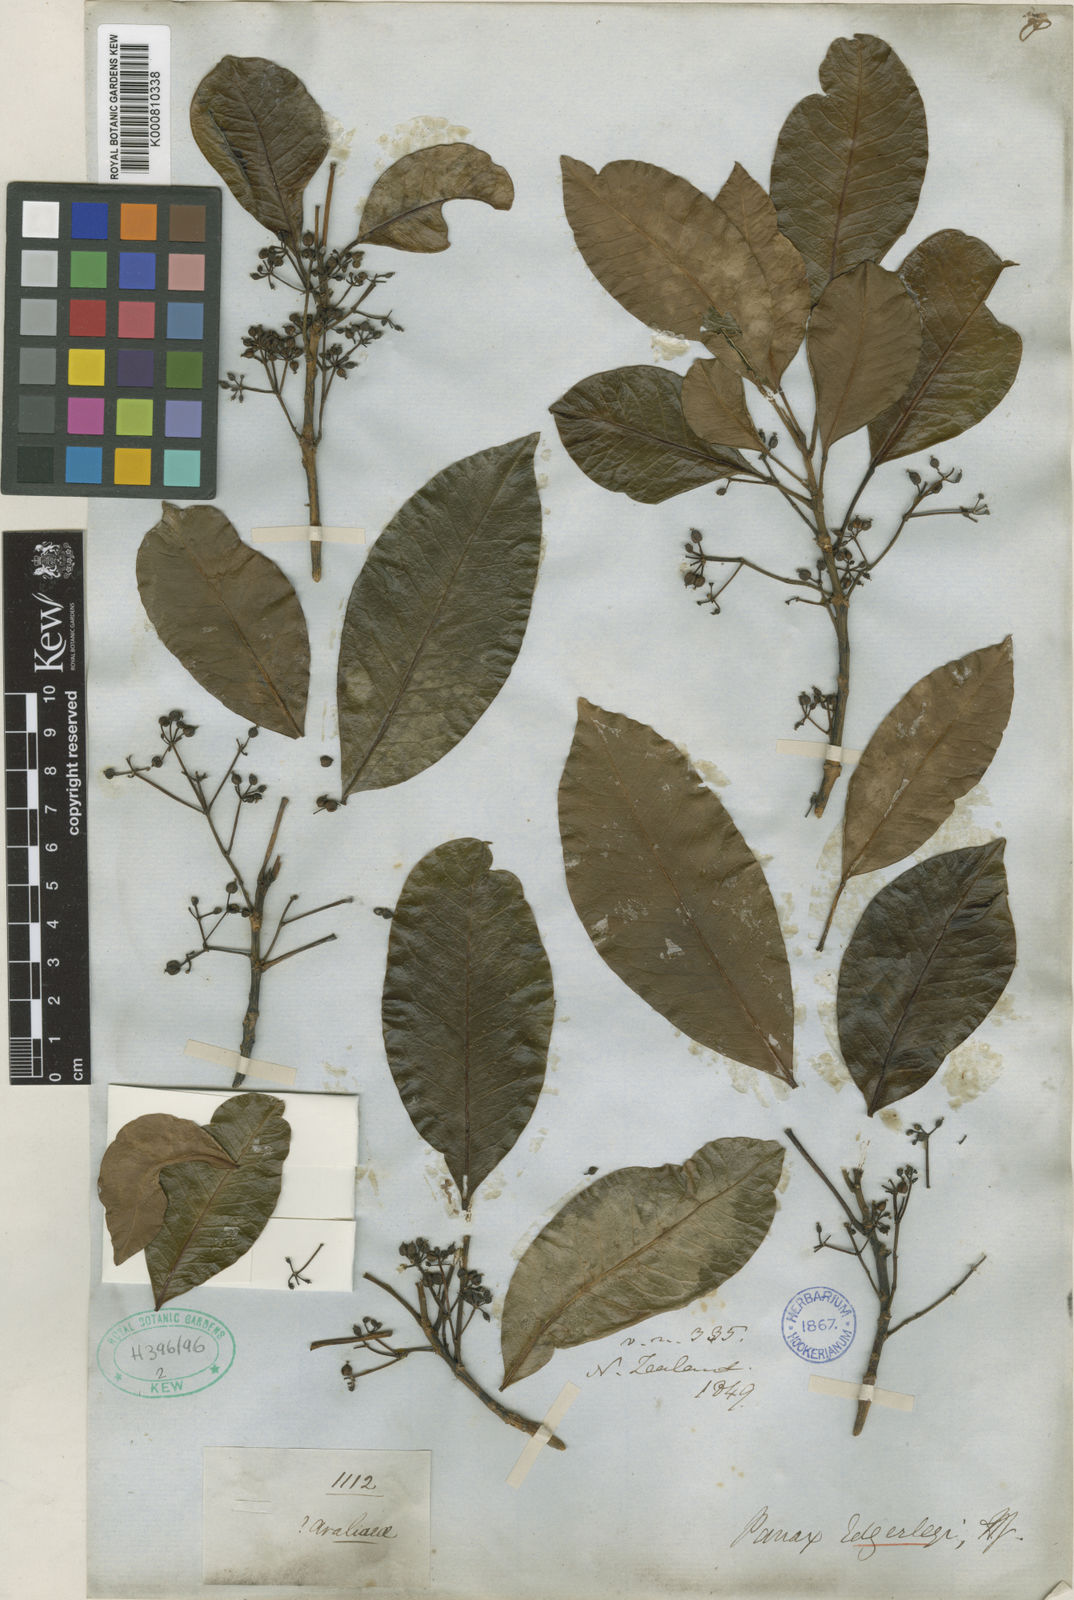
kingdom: Plantae
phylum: Tracheophyta
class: Magnoliopsida
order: Apiales
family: Araliaceae
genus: Raukaua
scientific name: Raukaua edgerleyi
